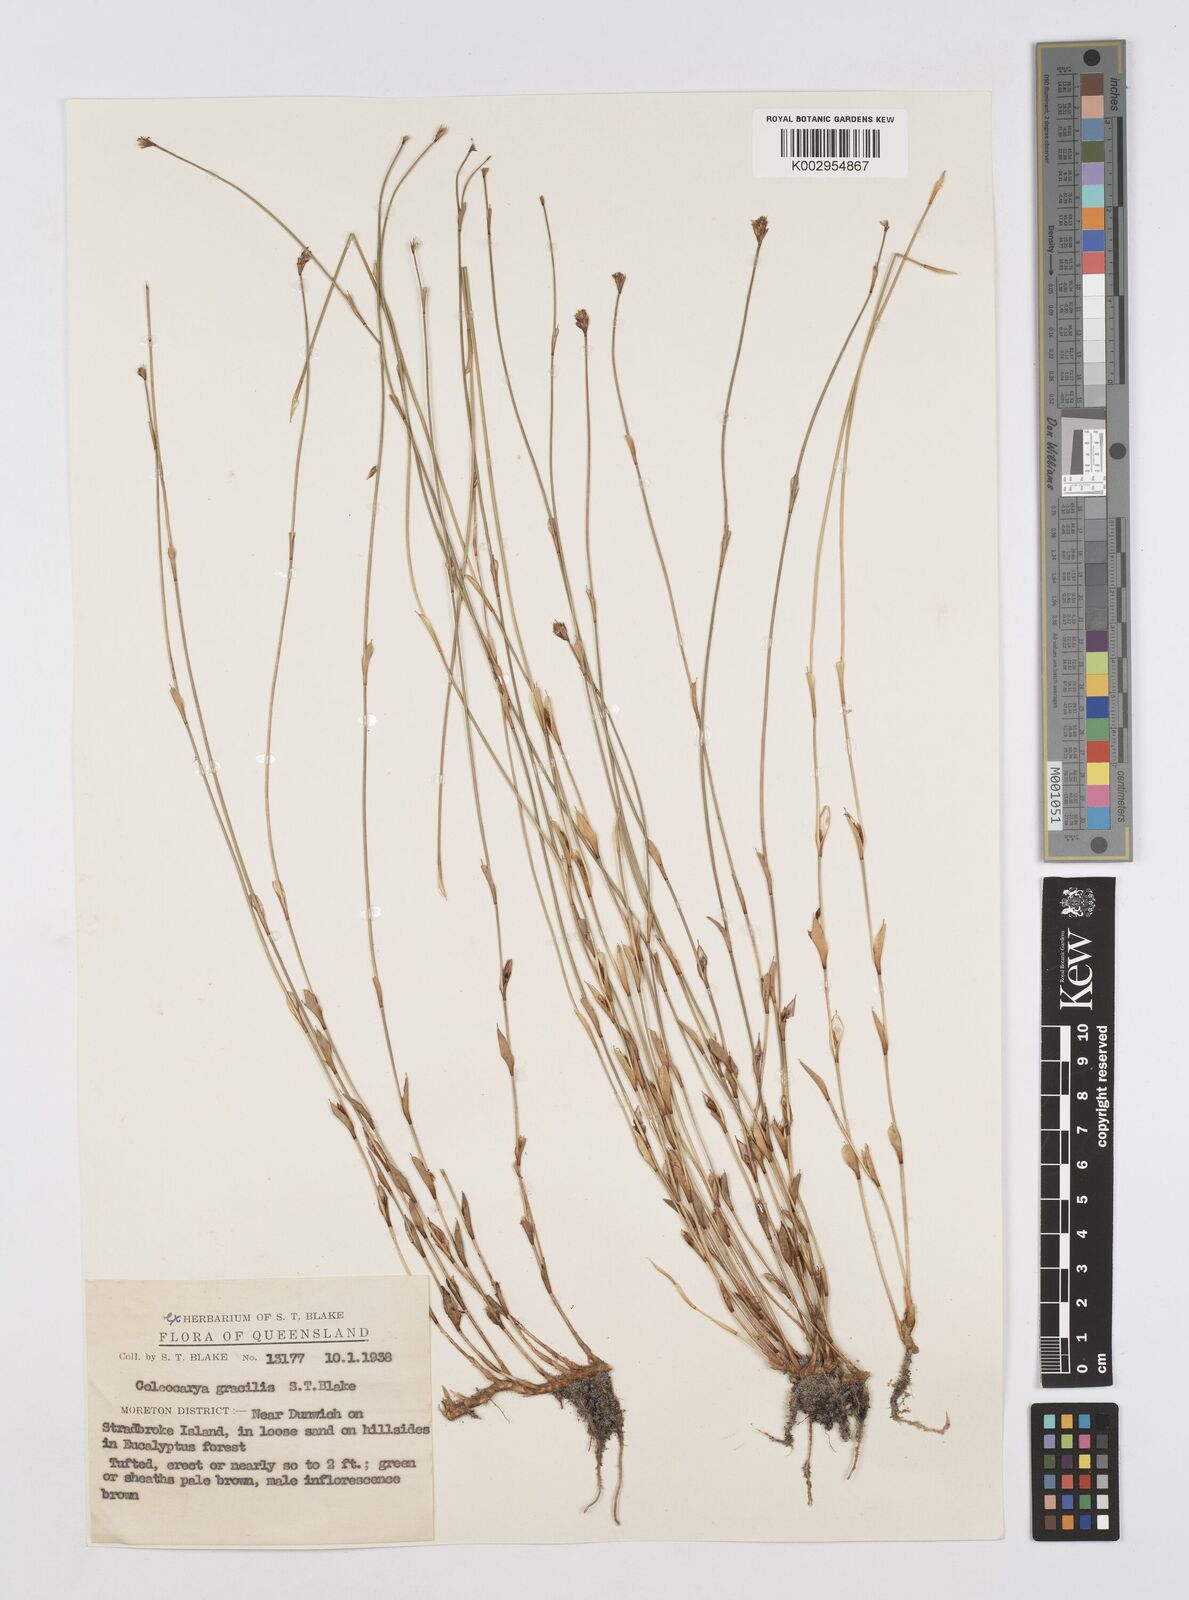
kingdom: Plantae
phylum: Tracheophyta
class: Liliopsida
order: Poales
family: Restionaceae
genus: Coleocarya
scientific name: Coleocarya gracilis
